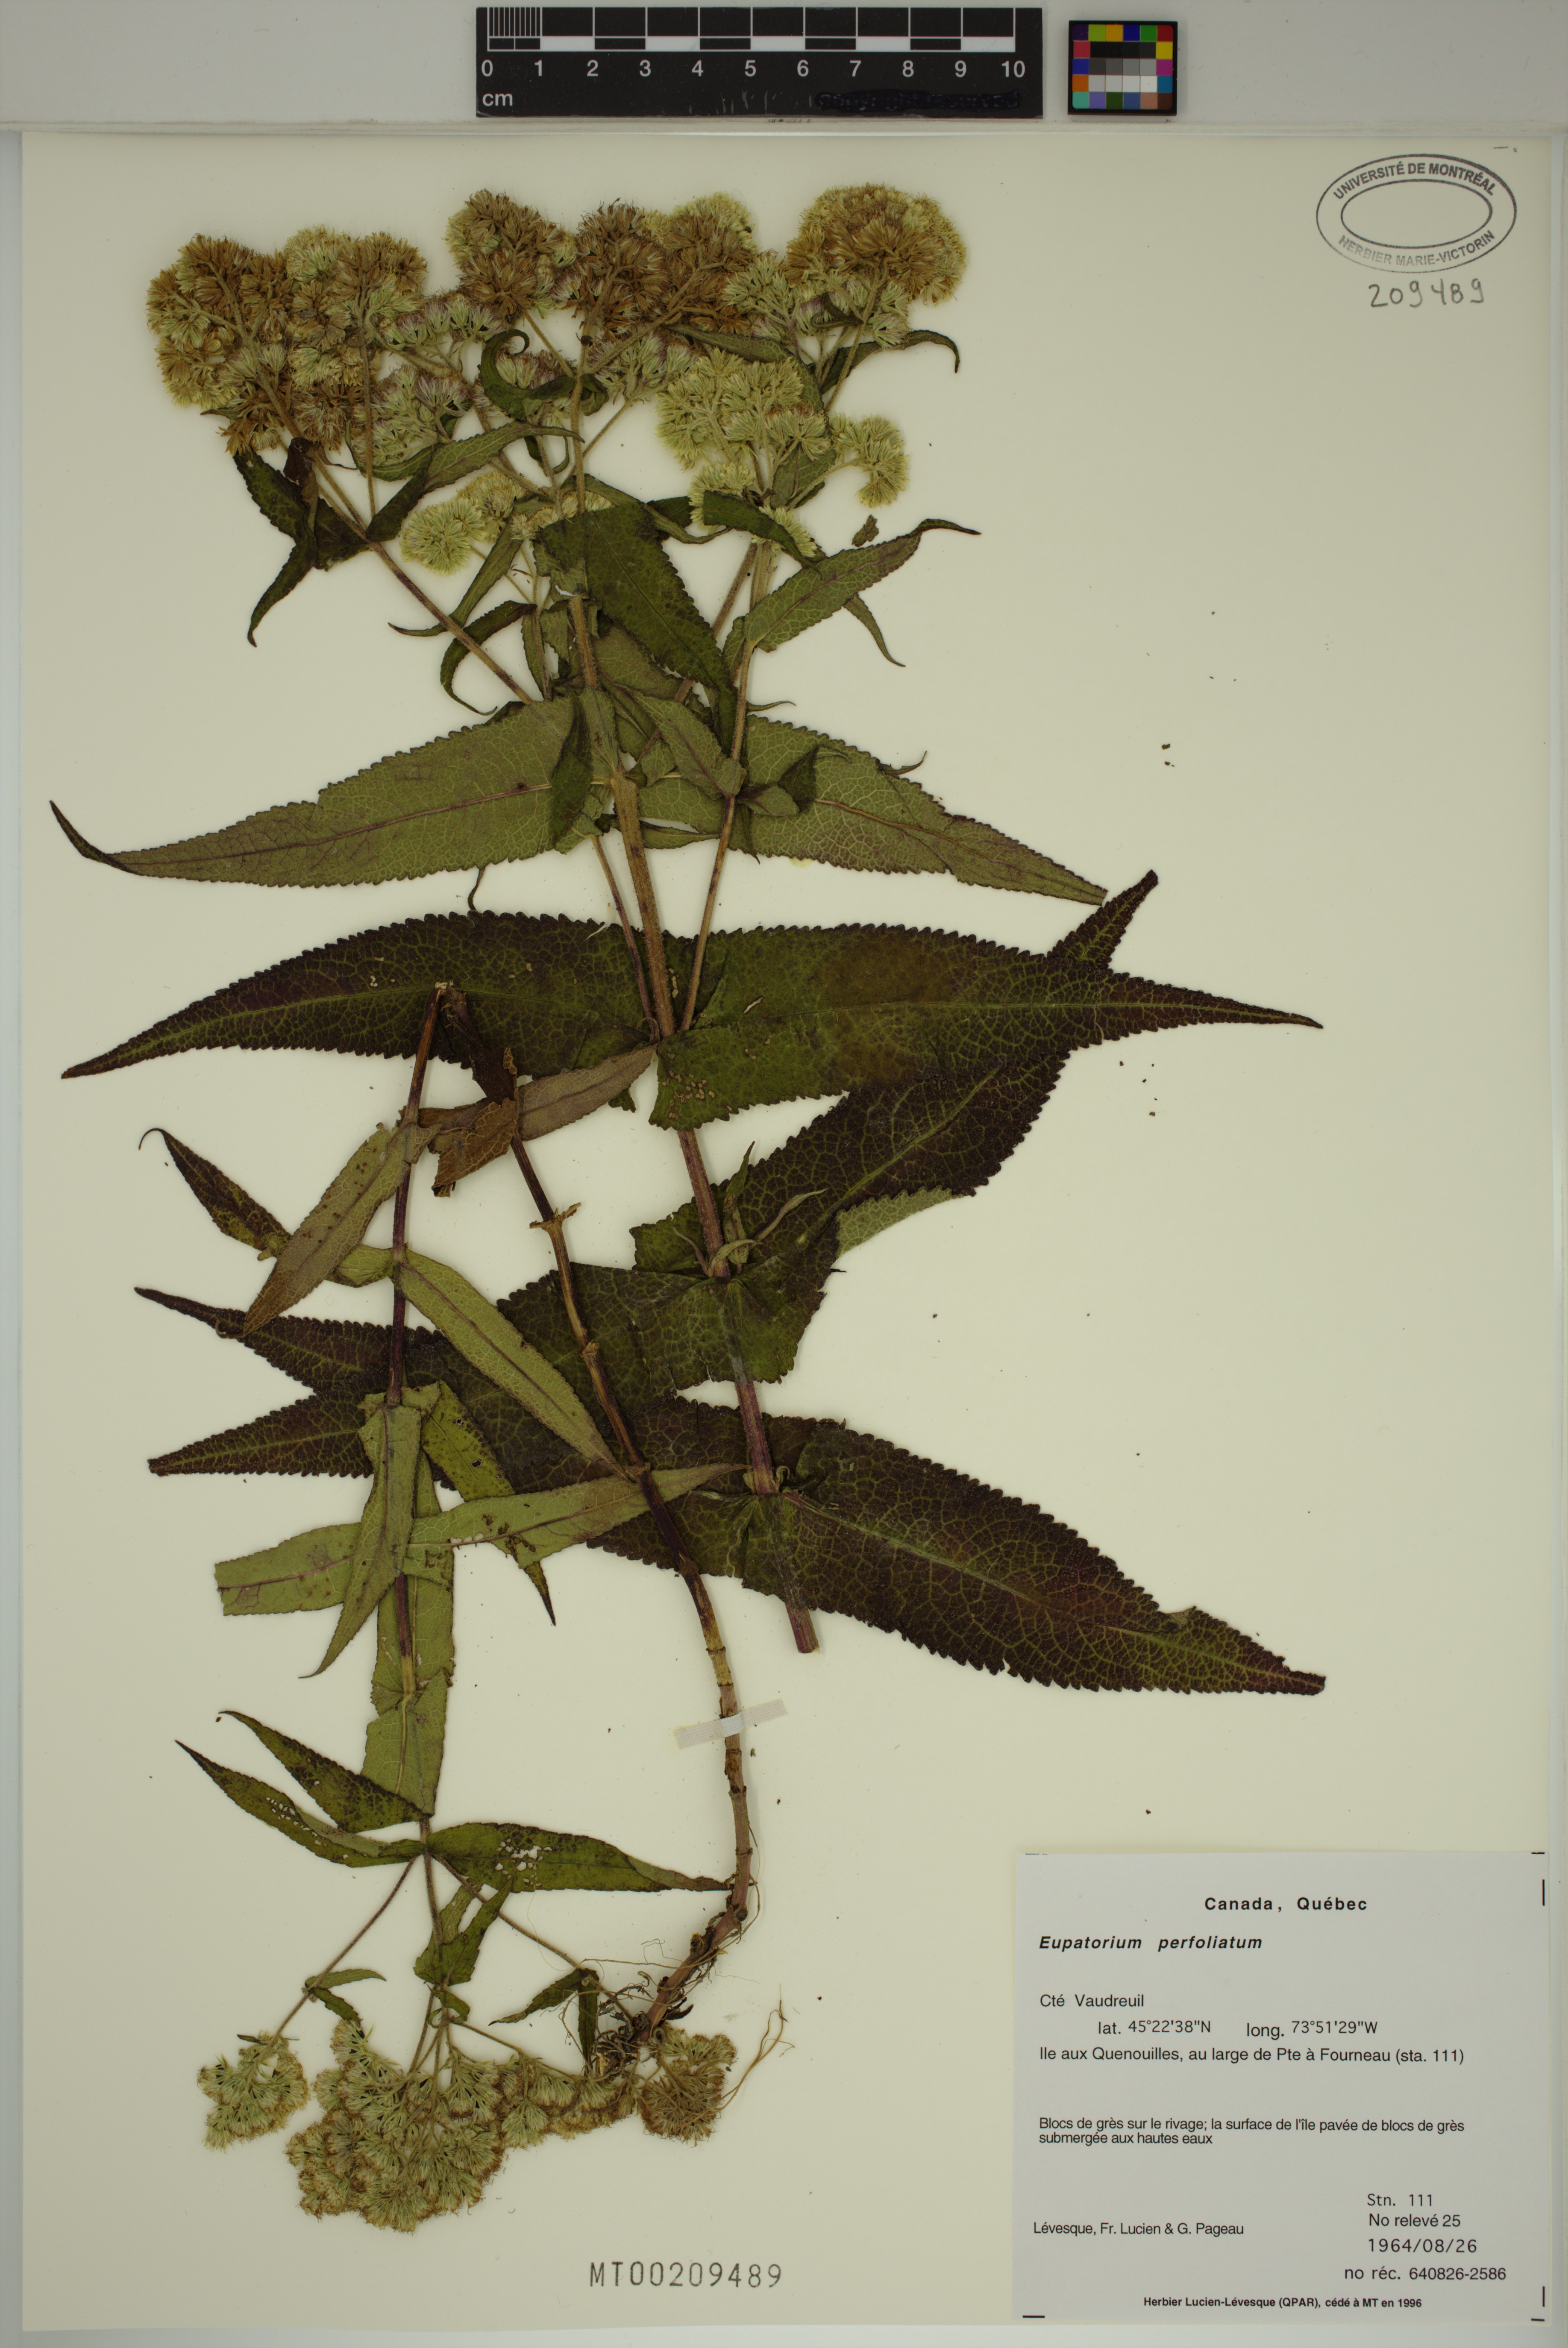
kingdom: Plantae
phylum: Tracheophyta
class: Magnoliopsida
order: Asterales
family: Asteraceae
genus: Eupatorium
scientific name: Eupatorium perfoliatum
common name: Boneset
